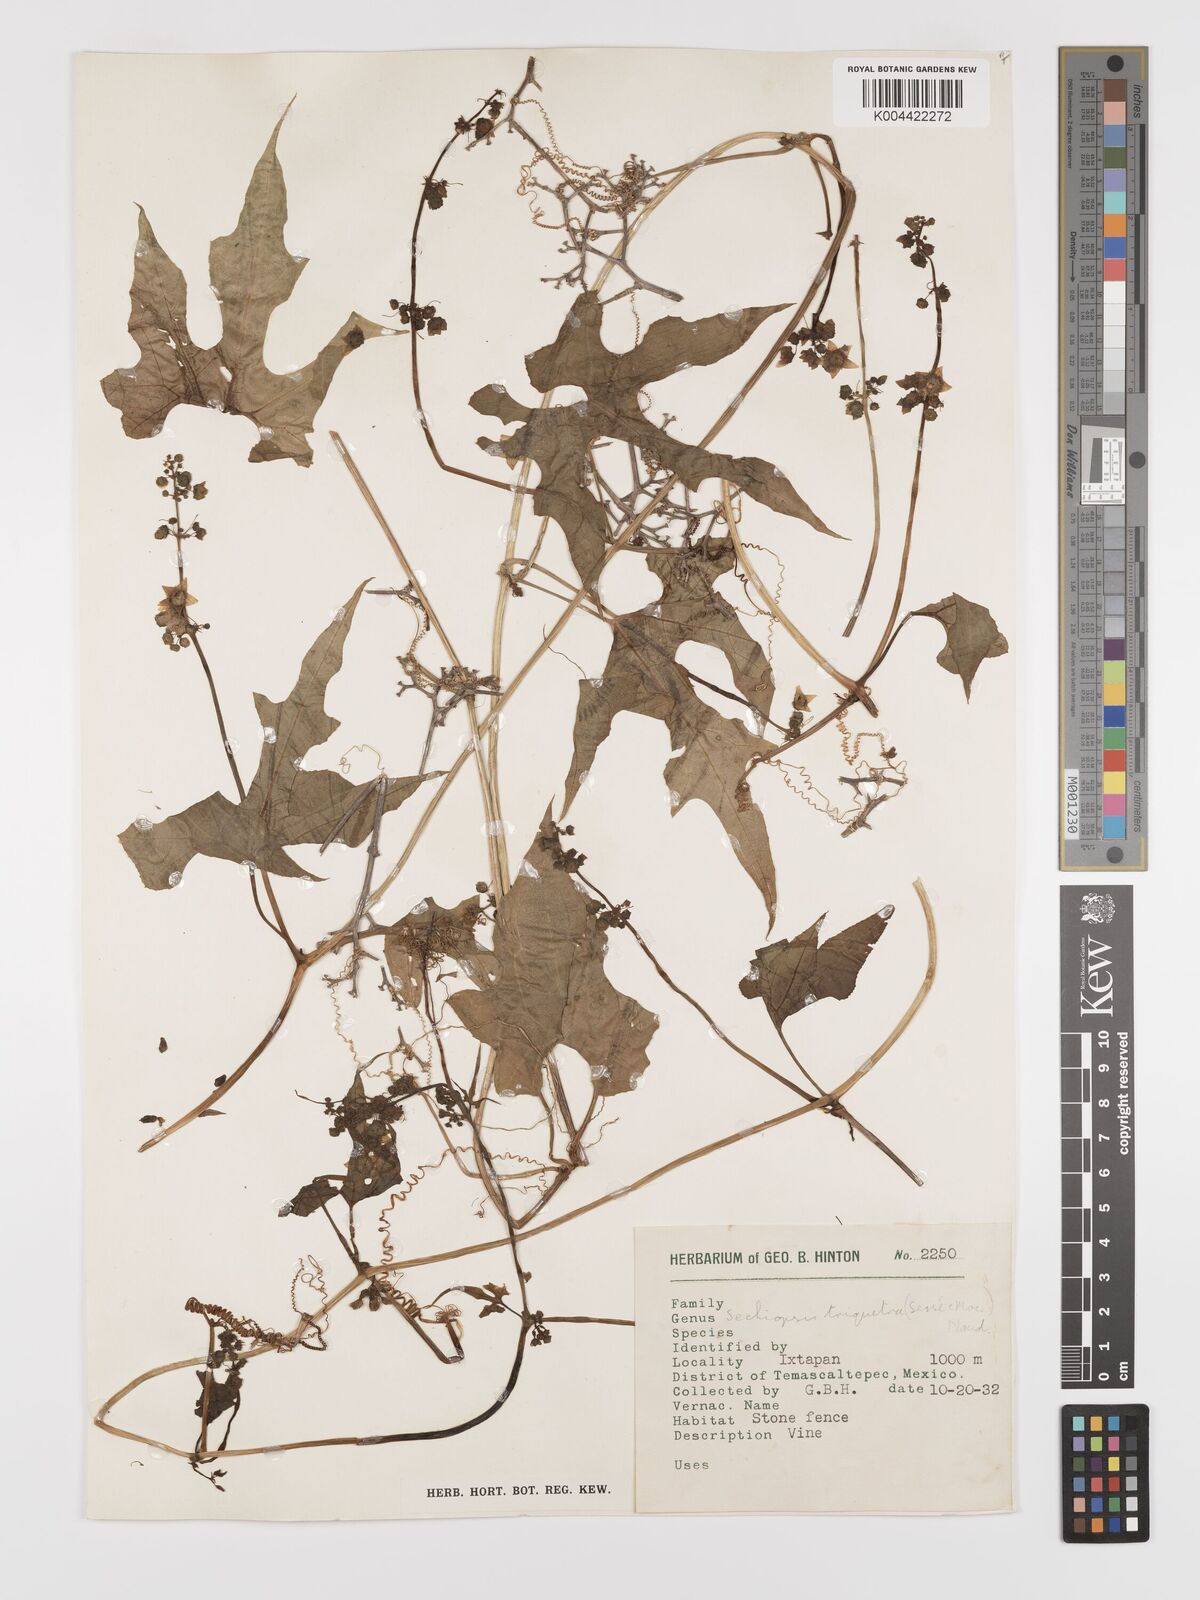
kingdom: Plantae
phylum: Tracheophyta
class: Magnoliopsida
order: Cucurbitales
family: Cucurbitaceae
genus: Sechiopsis
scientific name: Sechiopsis triqueter
